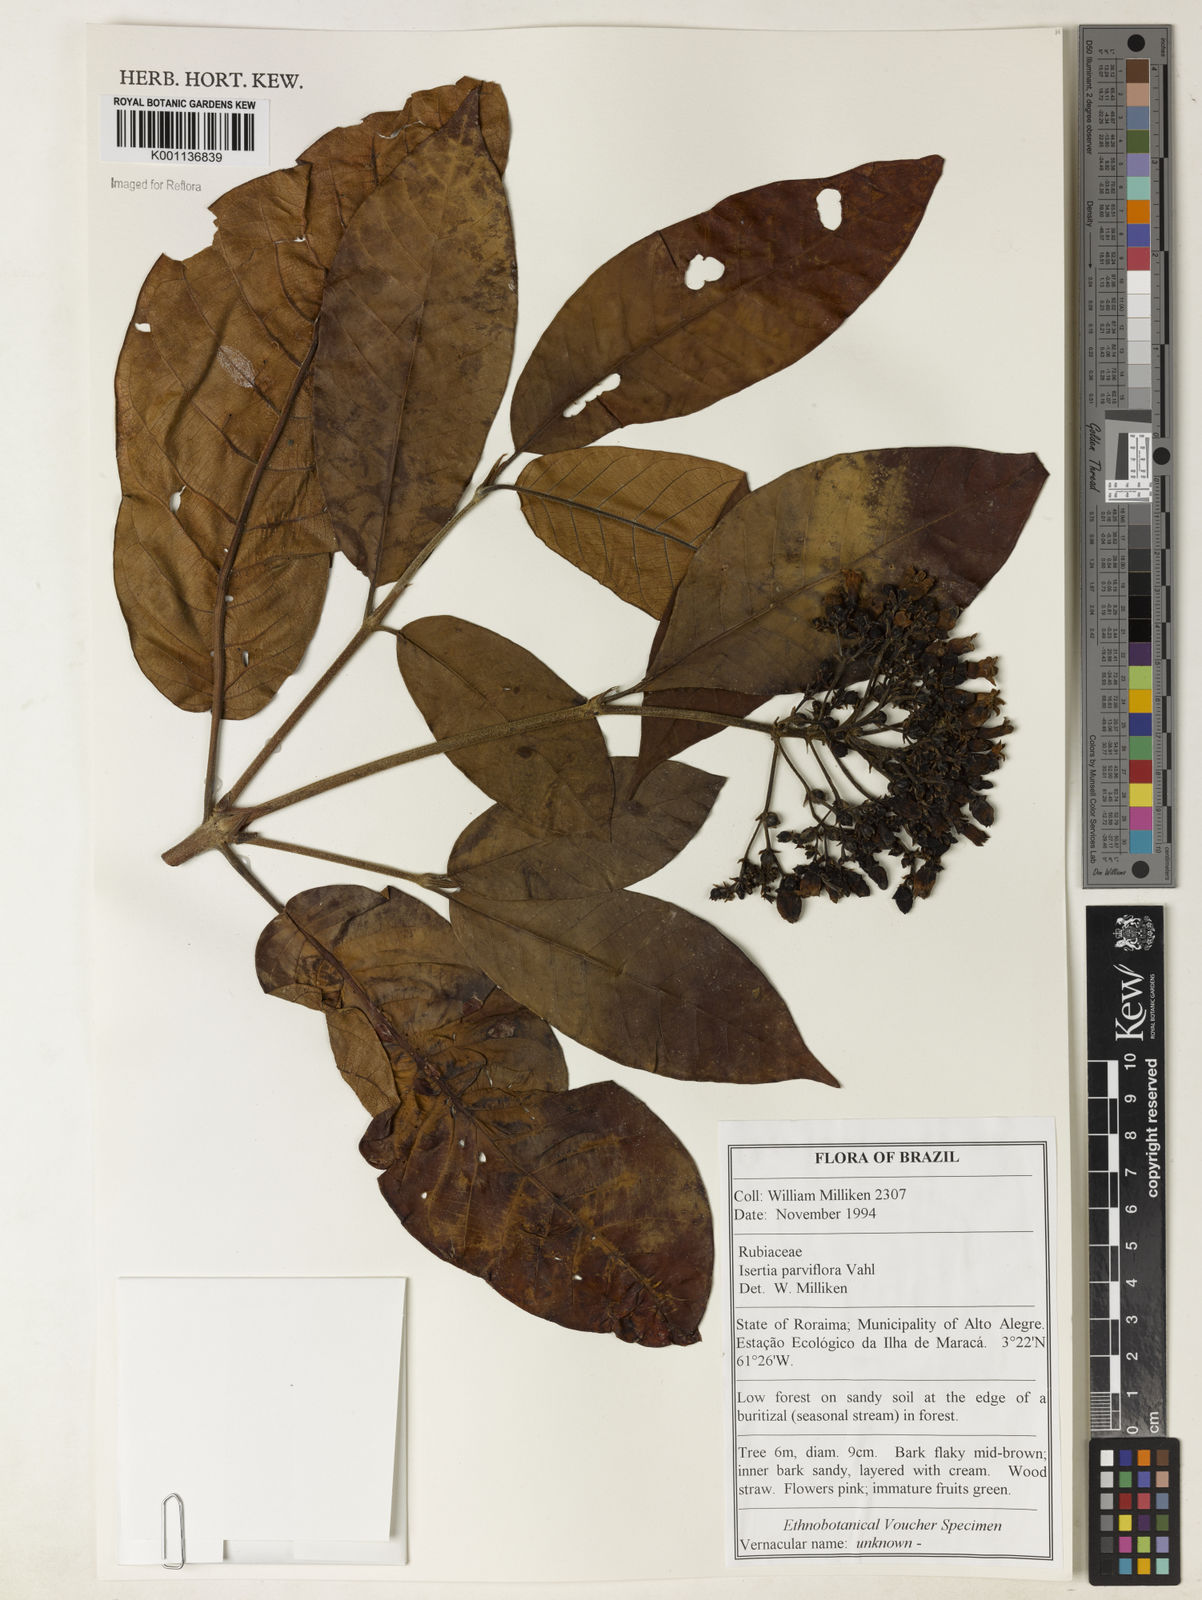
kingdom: Plantae
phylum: Tracheophyta
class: Magnoliopsida
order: Gentianales
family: Rubiaceae
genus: Isertia
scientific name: Isertia parviflora
